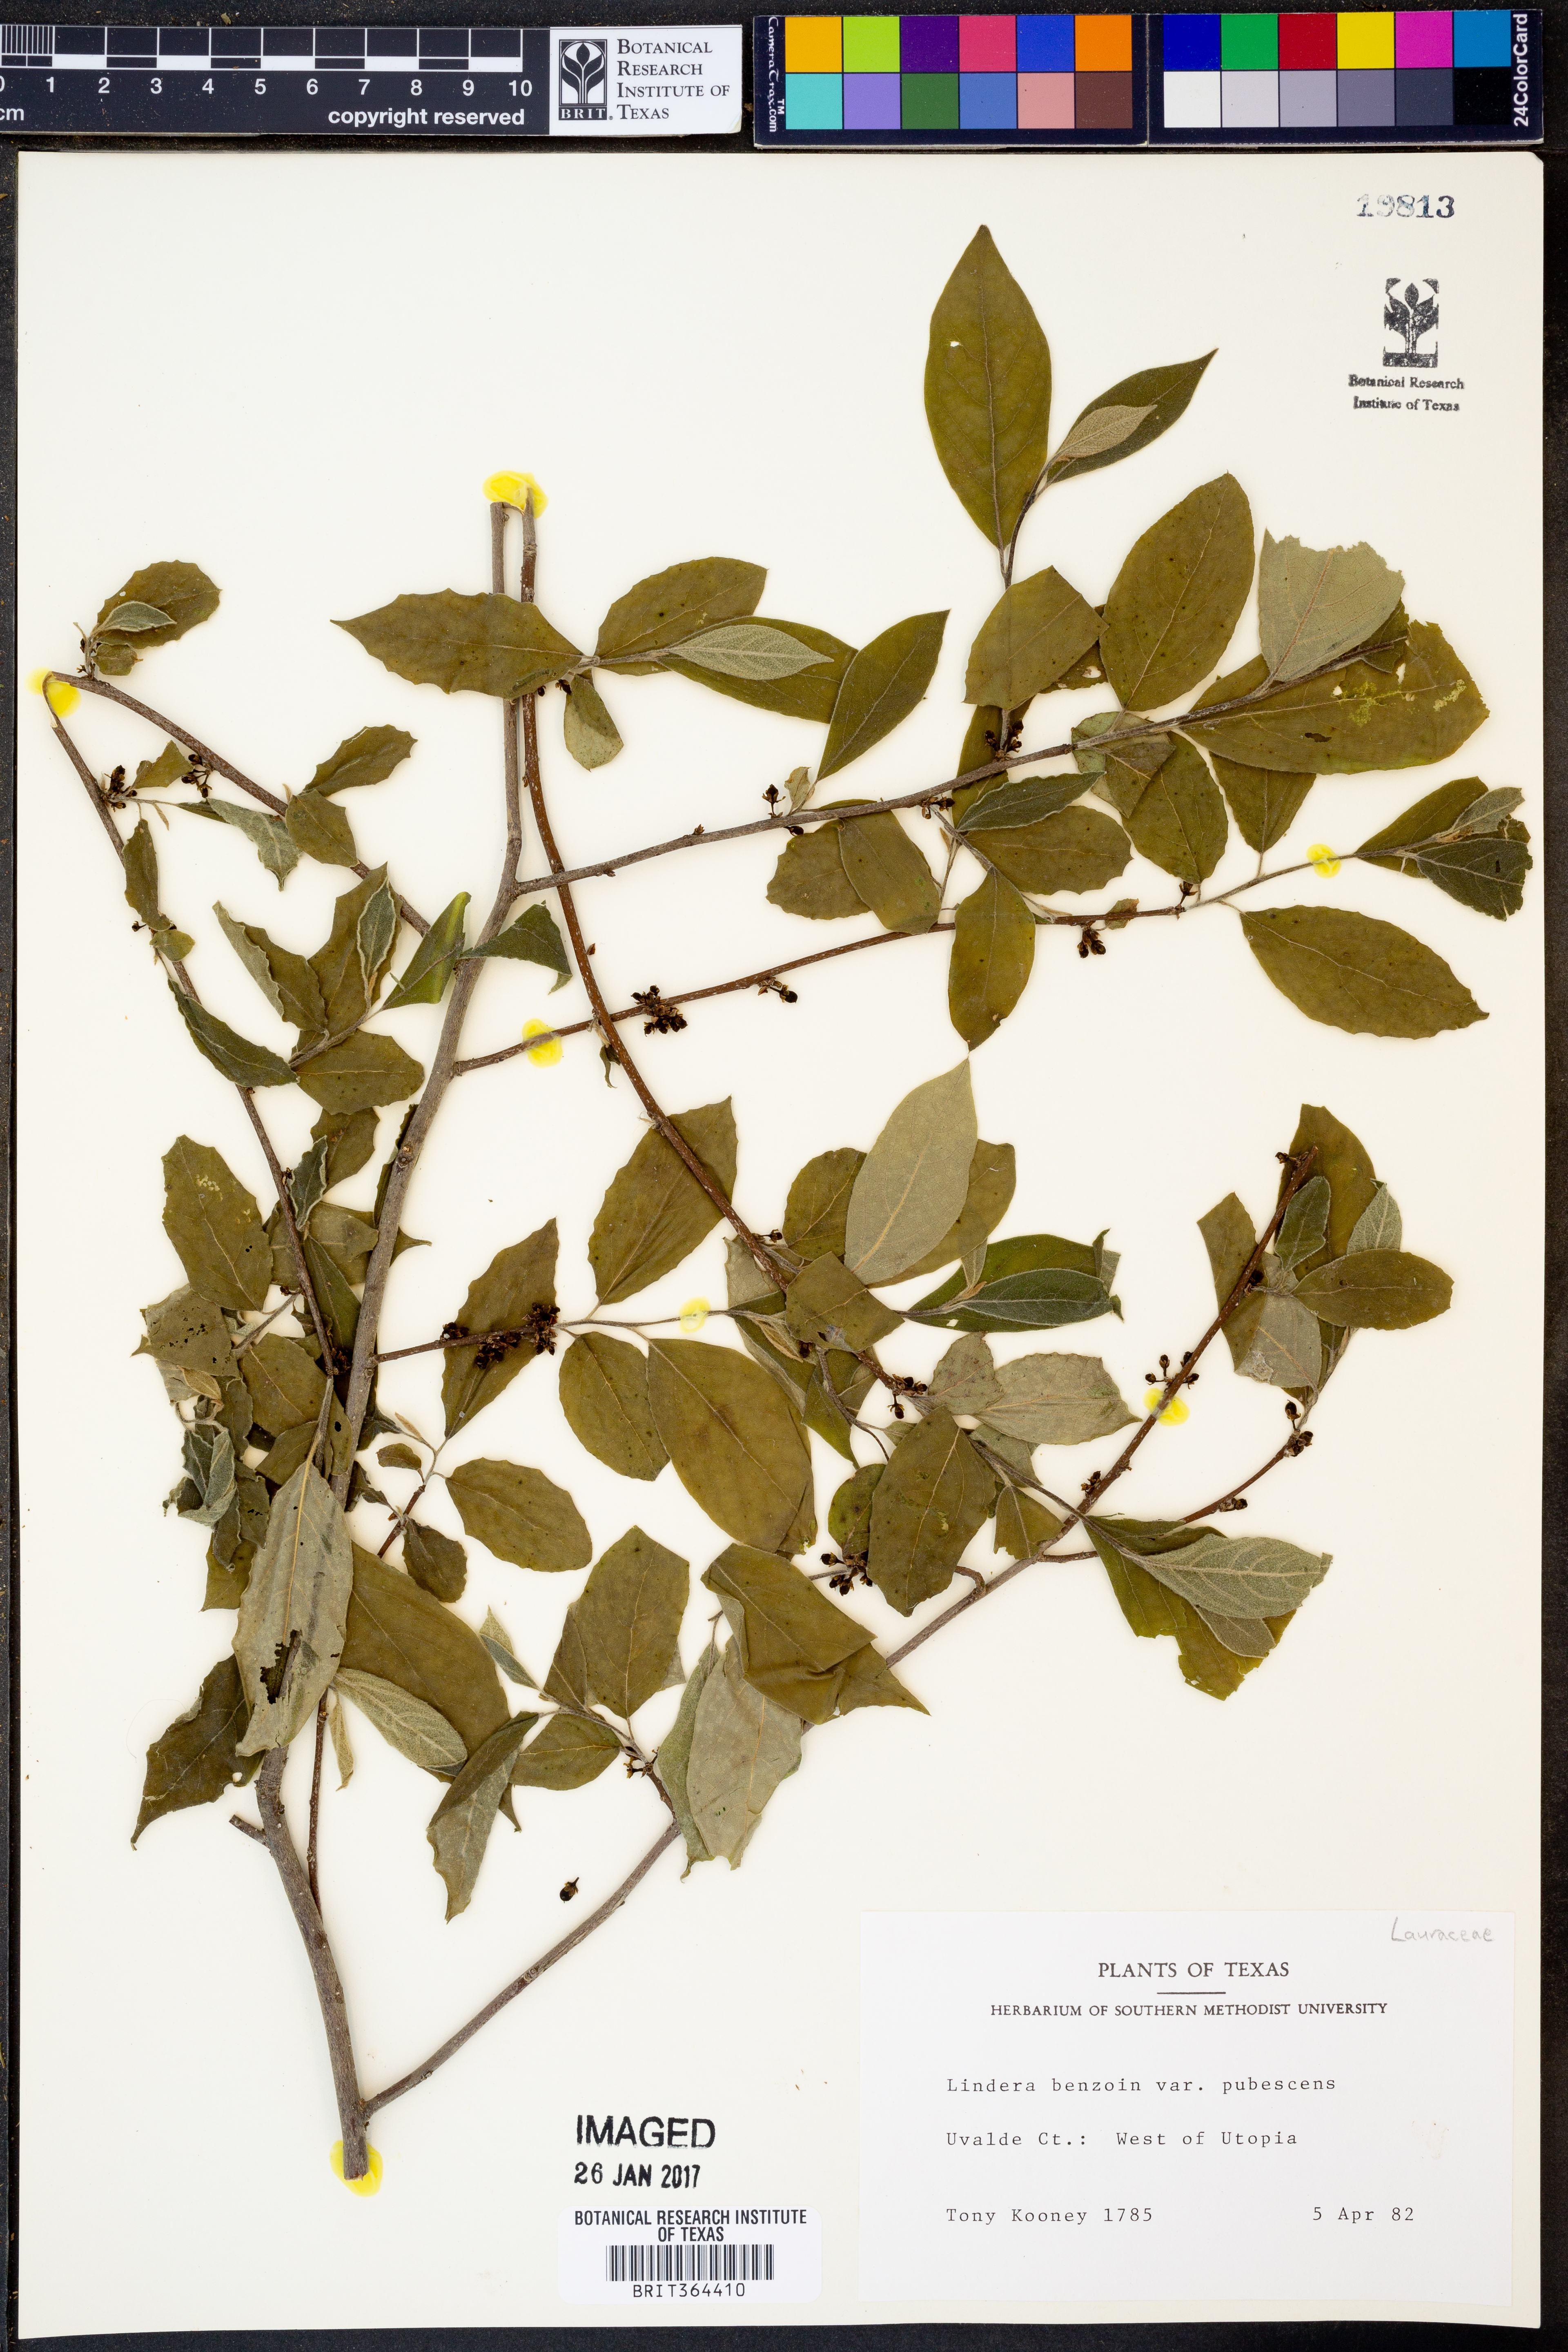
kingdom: Plantae
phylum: Tracheophyta
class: Magnoliopsida
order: Laurales
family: Lauraceae
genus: Lindera
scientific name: Lindera benzoin
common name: Spicebush
